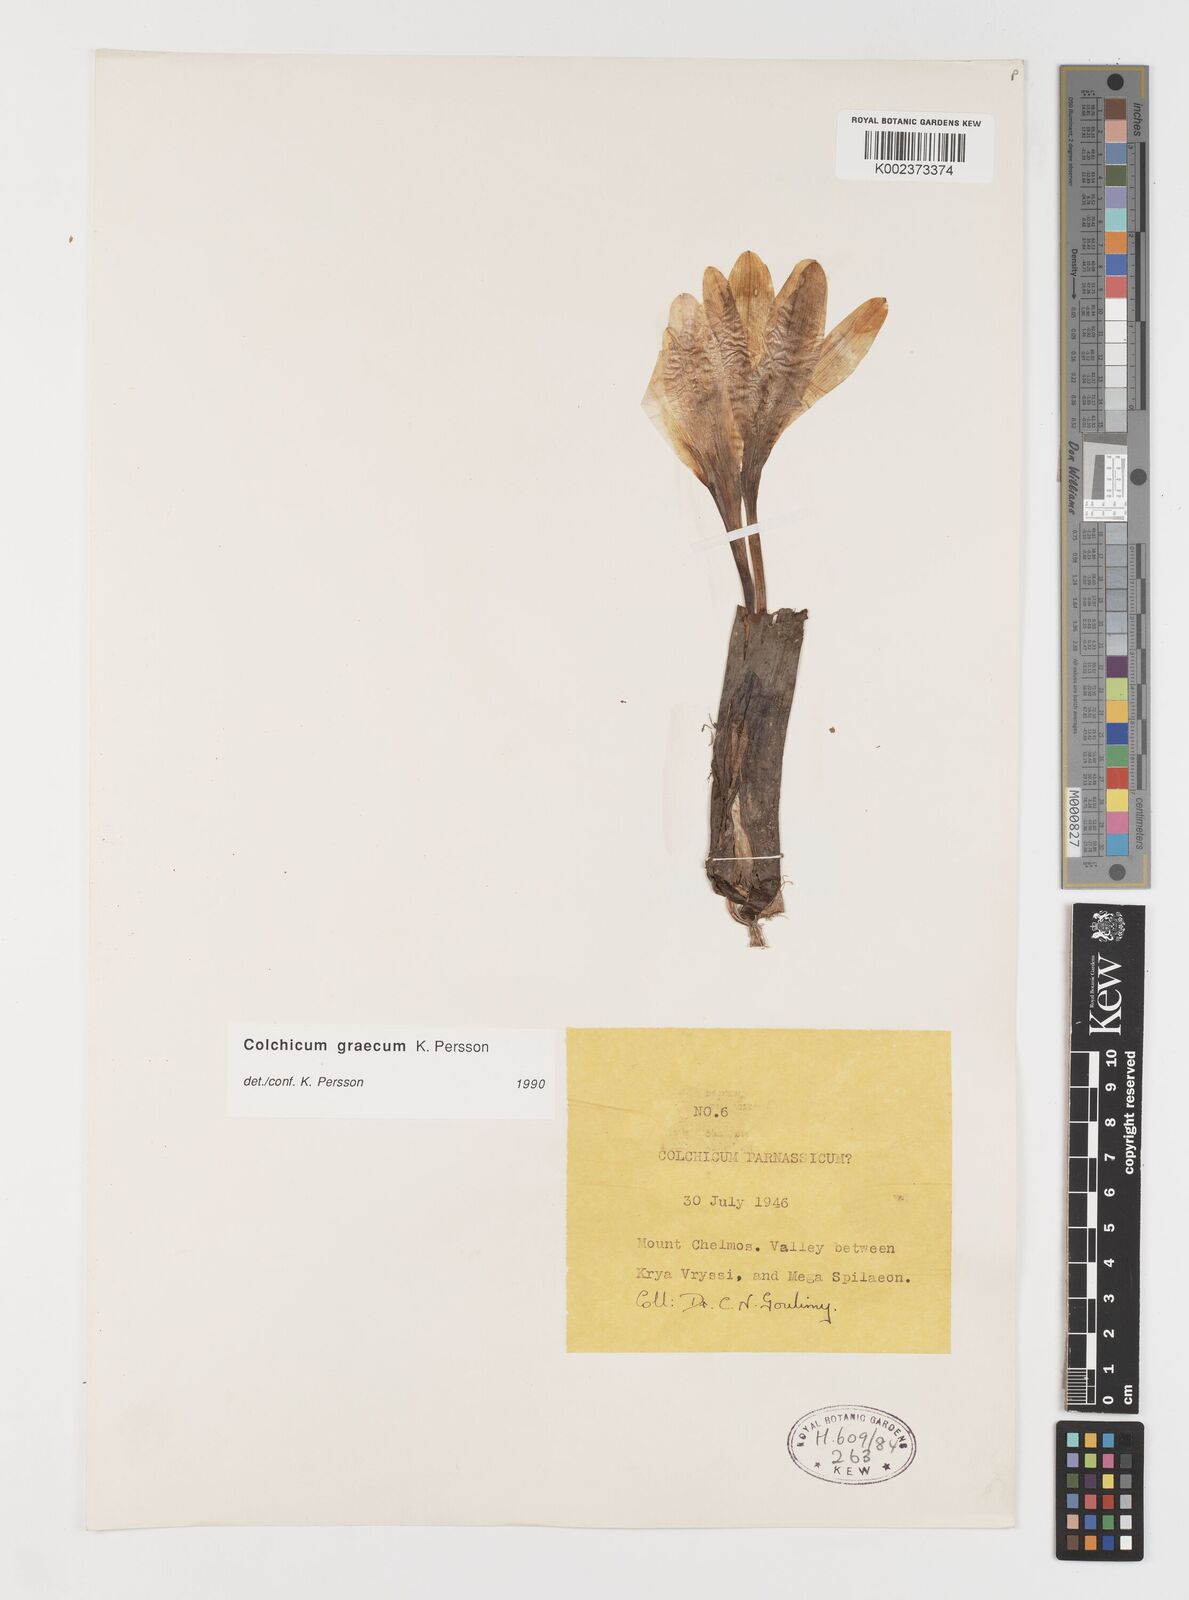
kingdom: Plantae
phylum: Tracheophyta
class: Liliopsida
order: Liliales
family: Colchicaceae
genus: Colchicum
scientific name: Colchicum graecum
